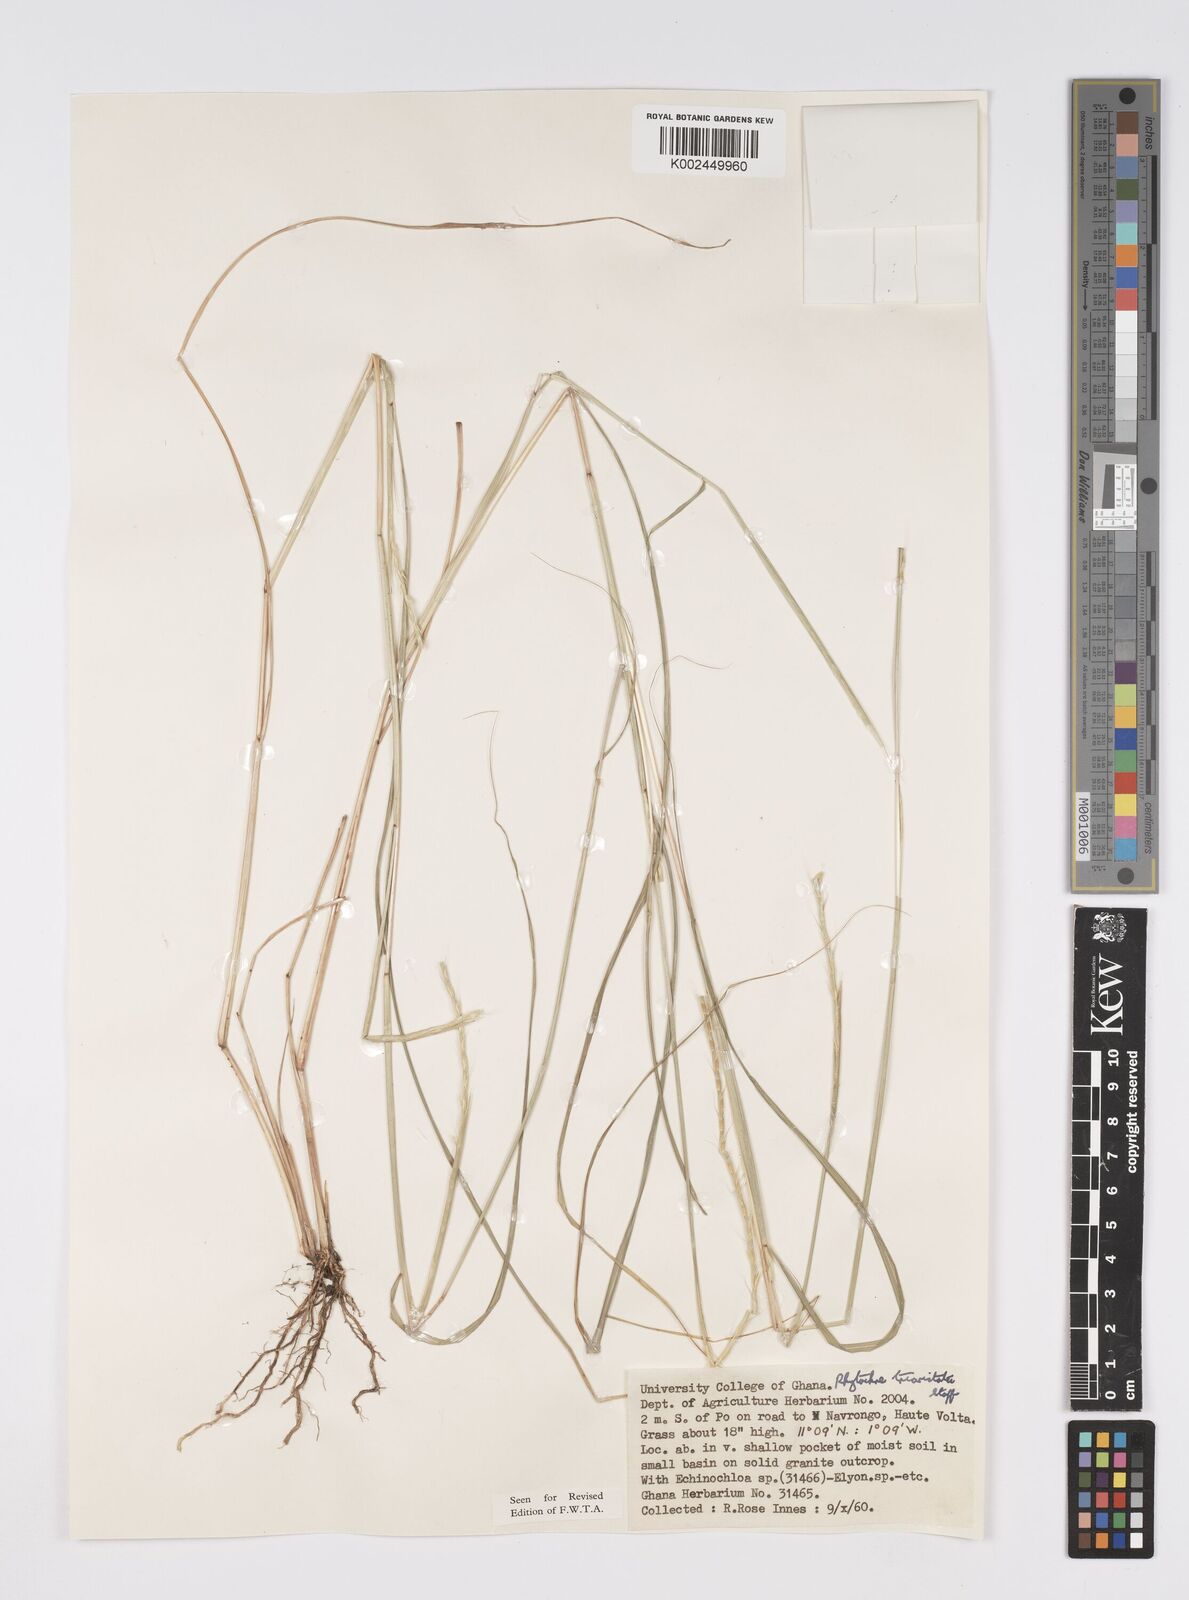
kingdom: Plantae
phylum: Tracheophyta
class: Liliopsida
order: Poales
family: Poaceae
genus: Rhytachne
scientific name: Rhytachne triaristata
